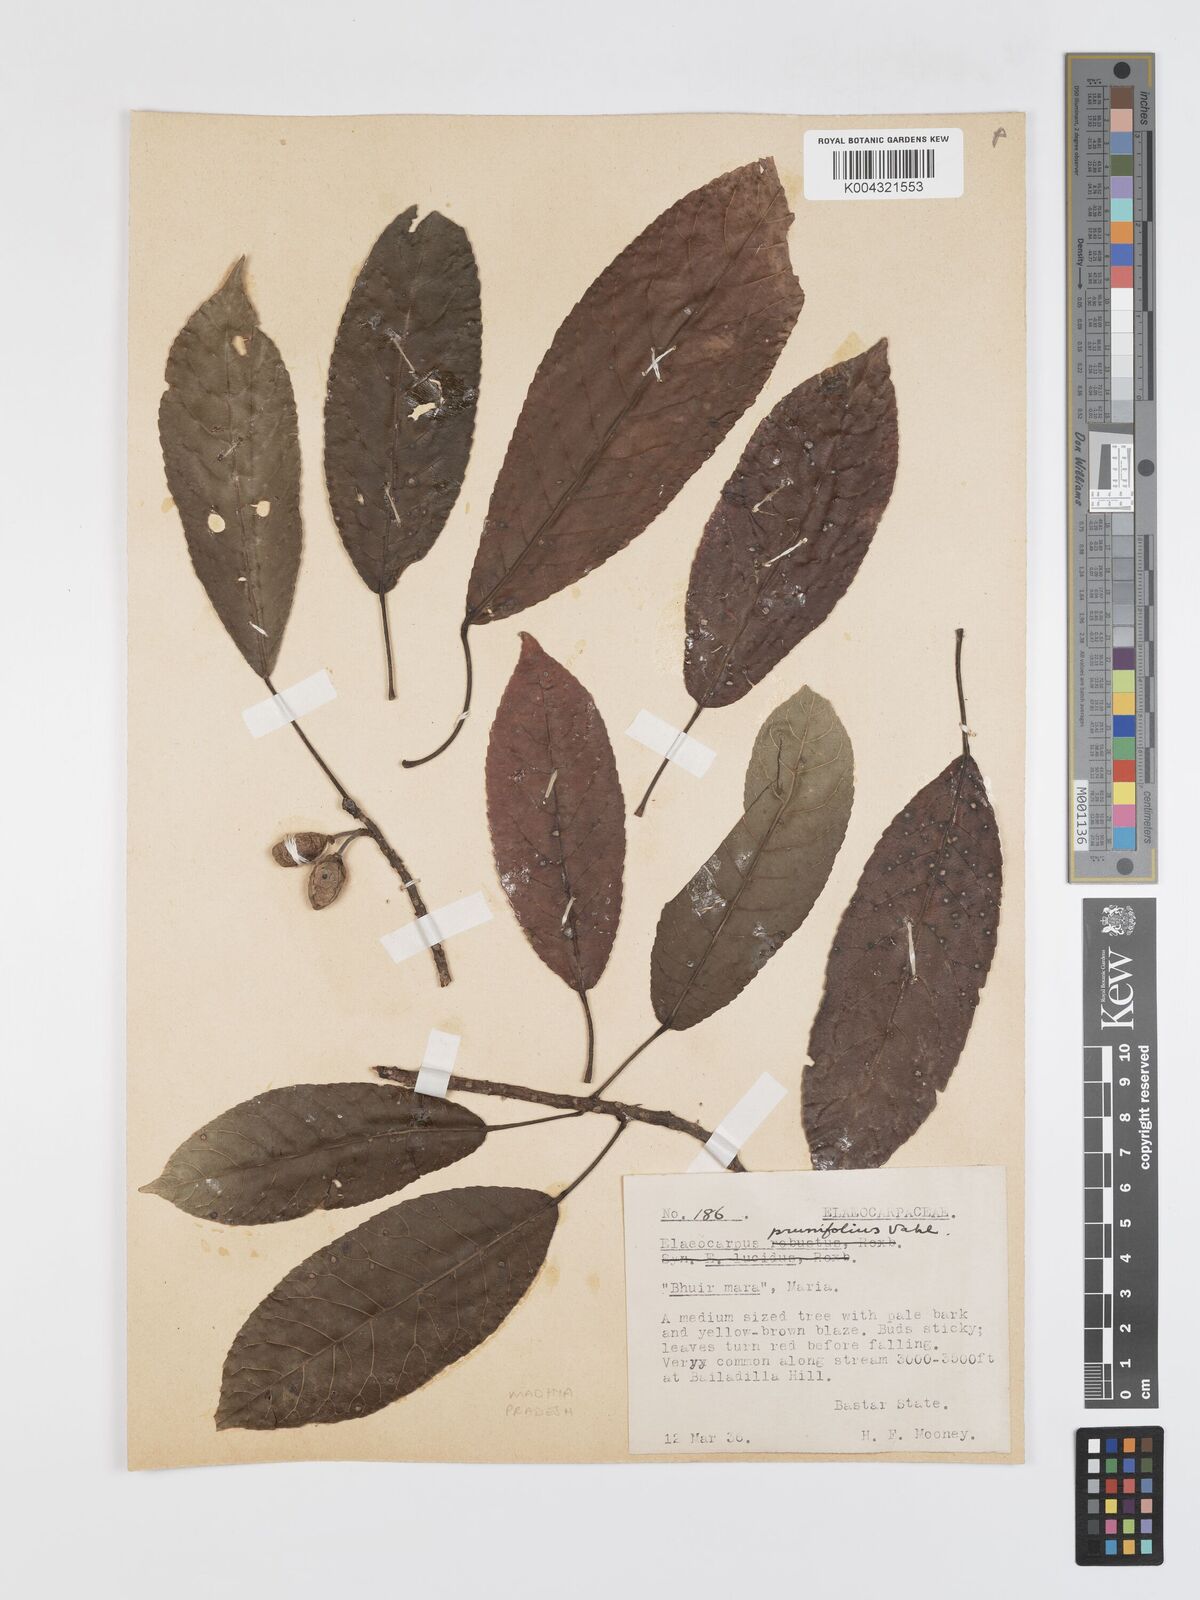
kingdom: Plantae
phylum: Tracheophyta
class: Magnoliopsida
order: Oxalidales
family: Elaeocarpaceae
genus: Elaeocarpus
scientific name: Elaeocarpus prunifolius
